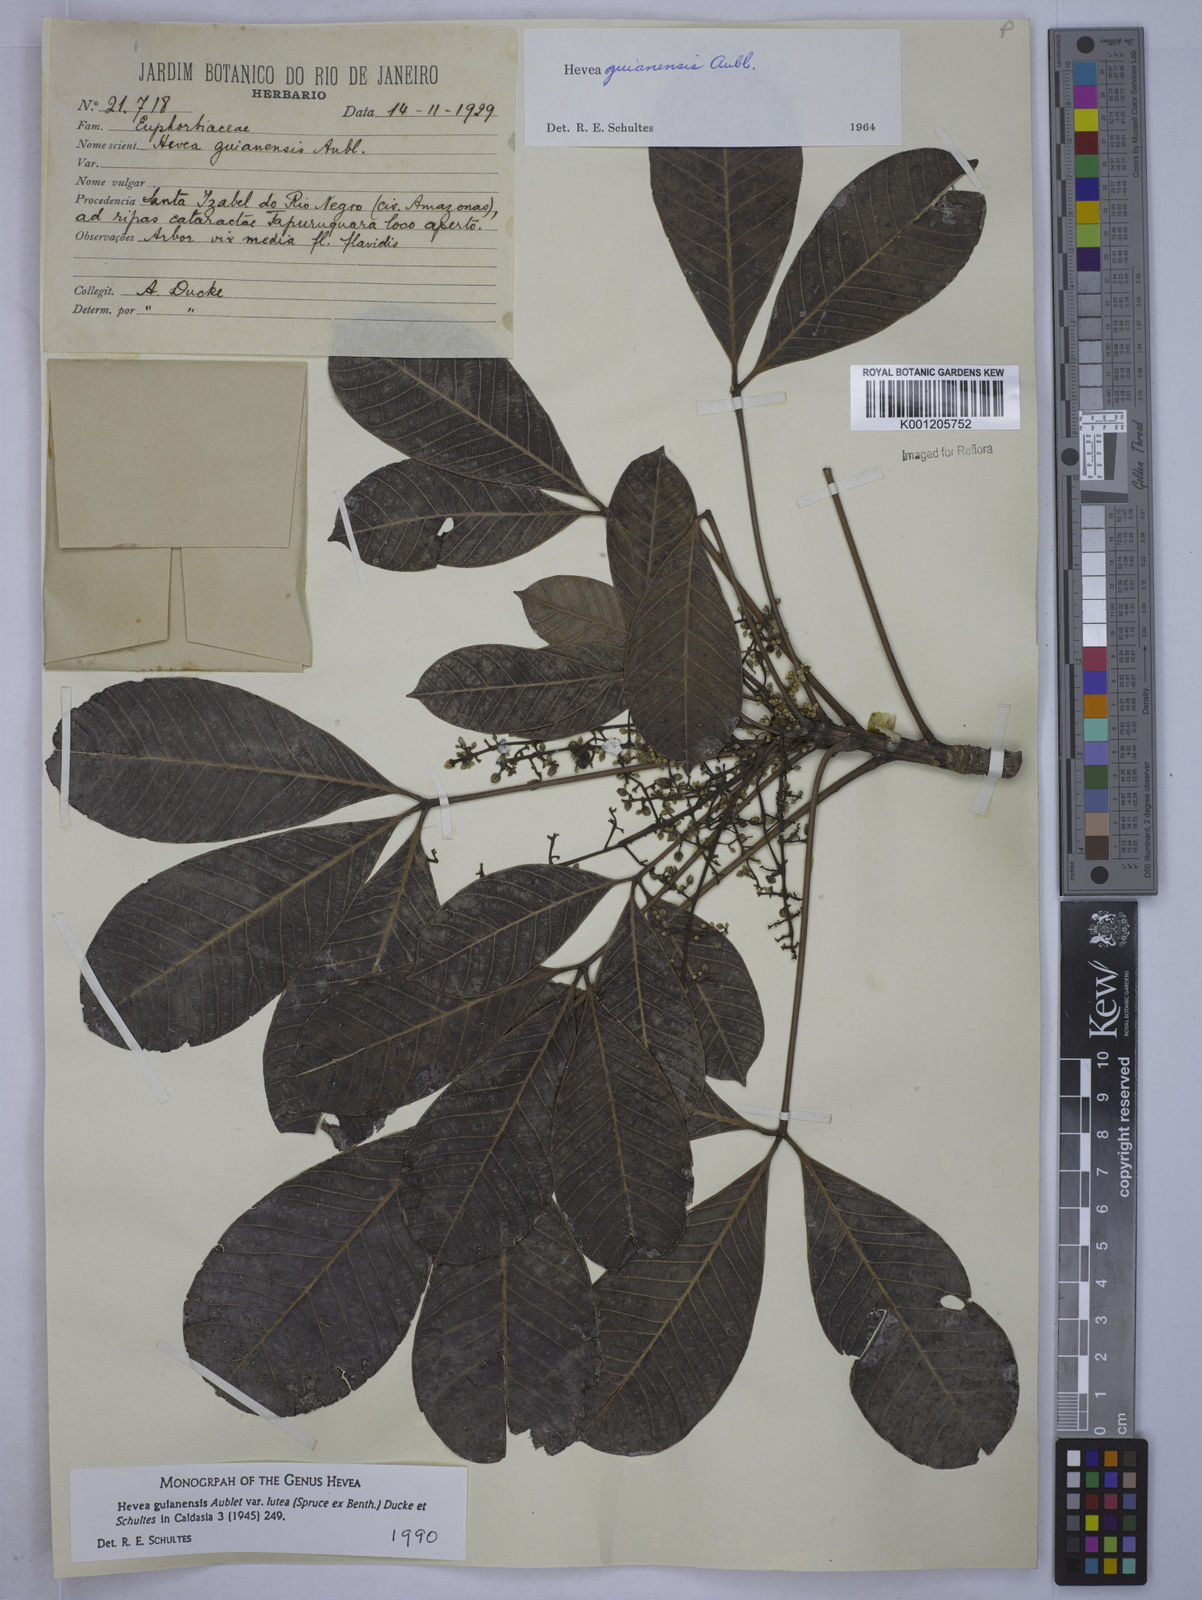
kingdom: Plantae
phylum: Tracheophyta
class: Magnoliopsida
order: Malpighiales
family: Euphorbiaceae
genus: Hevea
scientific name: Hevea guianensis
